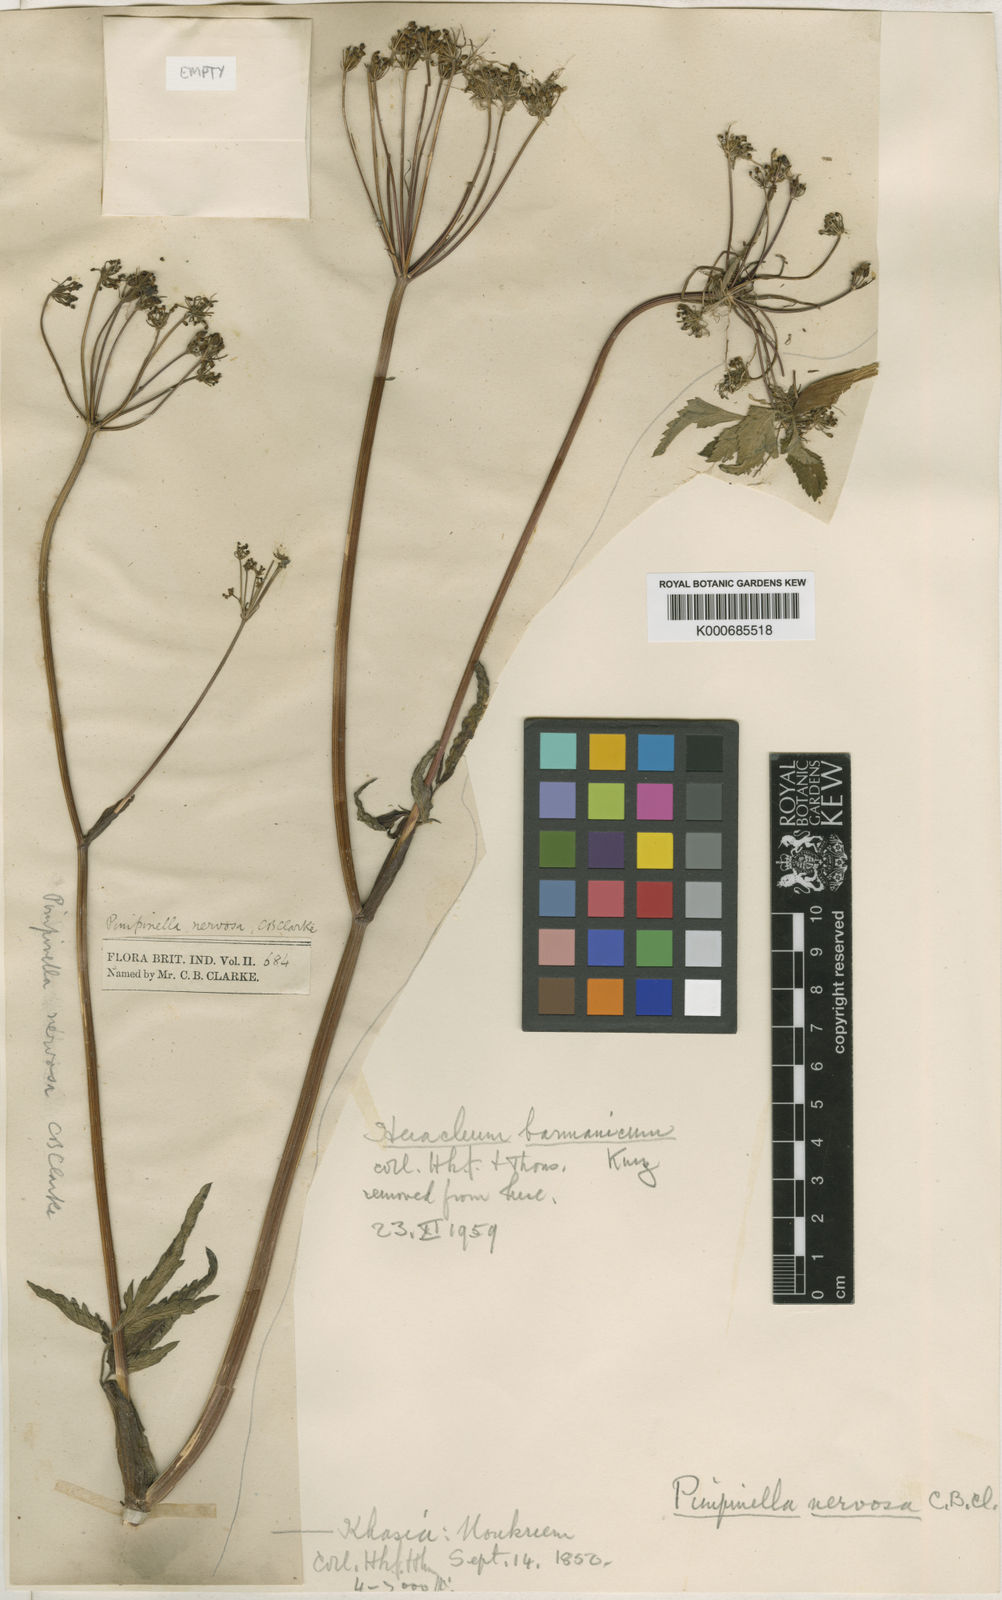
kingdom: Plantae
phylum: Tracheophyta
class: Magnoliopsida
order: Apiales
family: Apiaceae
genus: Pimpinella
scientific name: Pimpinella nervosa
